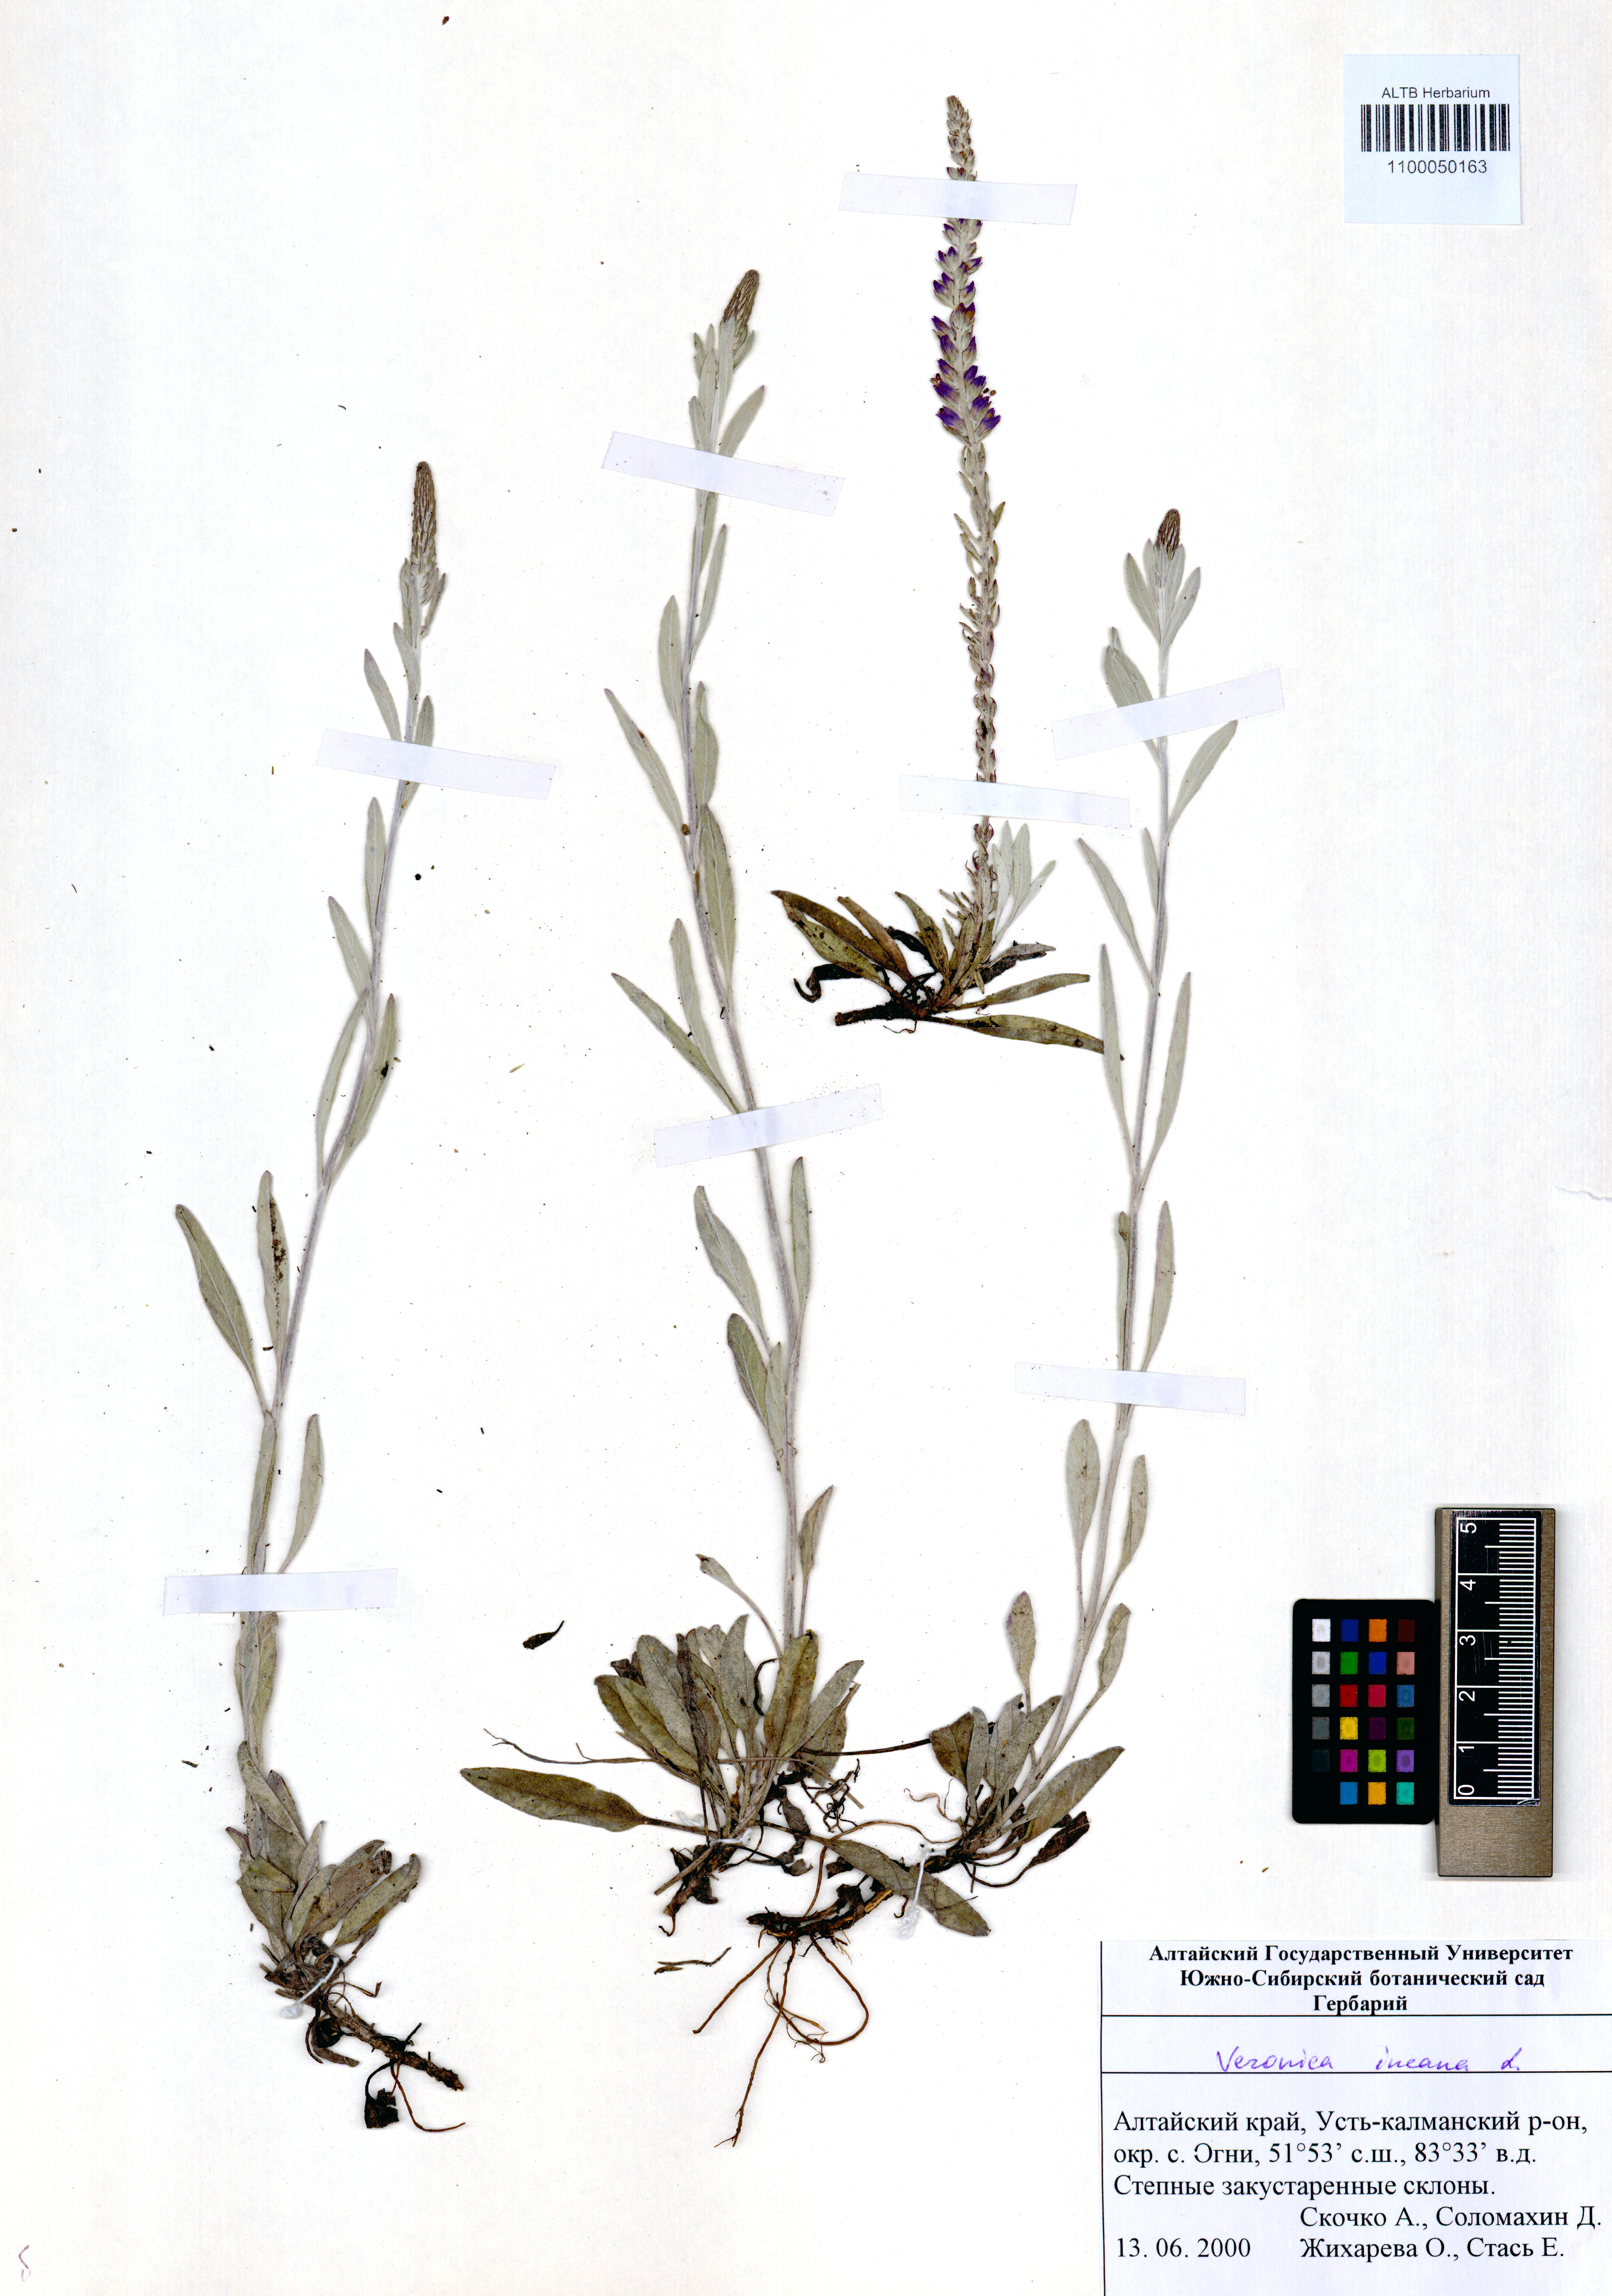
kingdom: Plantae
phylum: Tracheophyta
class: Magnoliopsida
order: Lamiales
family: Plantaginaceae
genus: Veronica
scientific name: Veronica incana
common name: Silver speedwell
